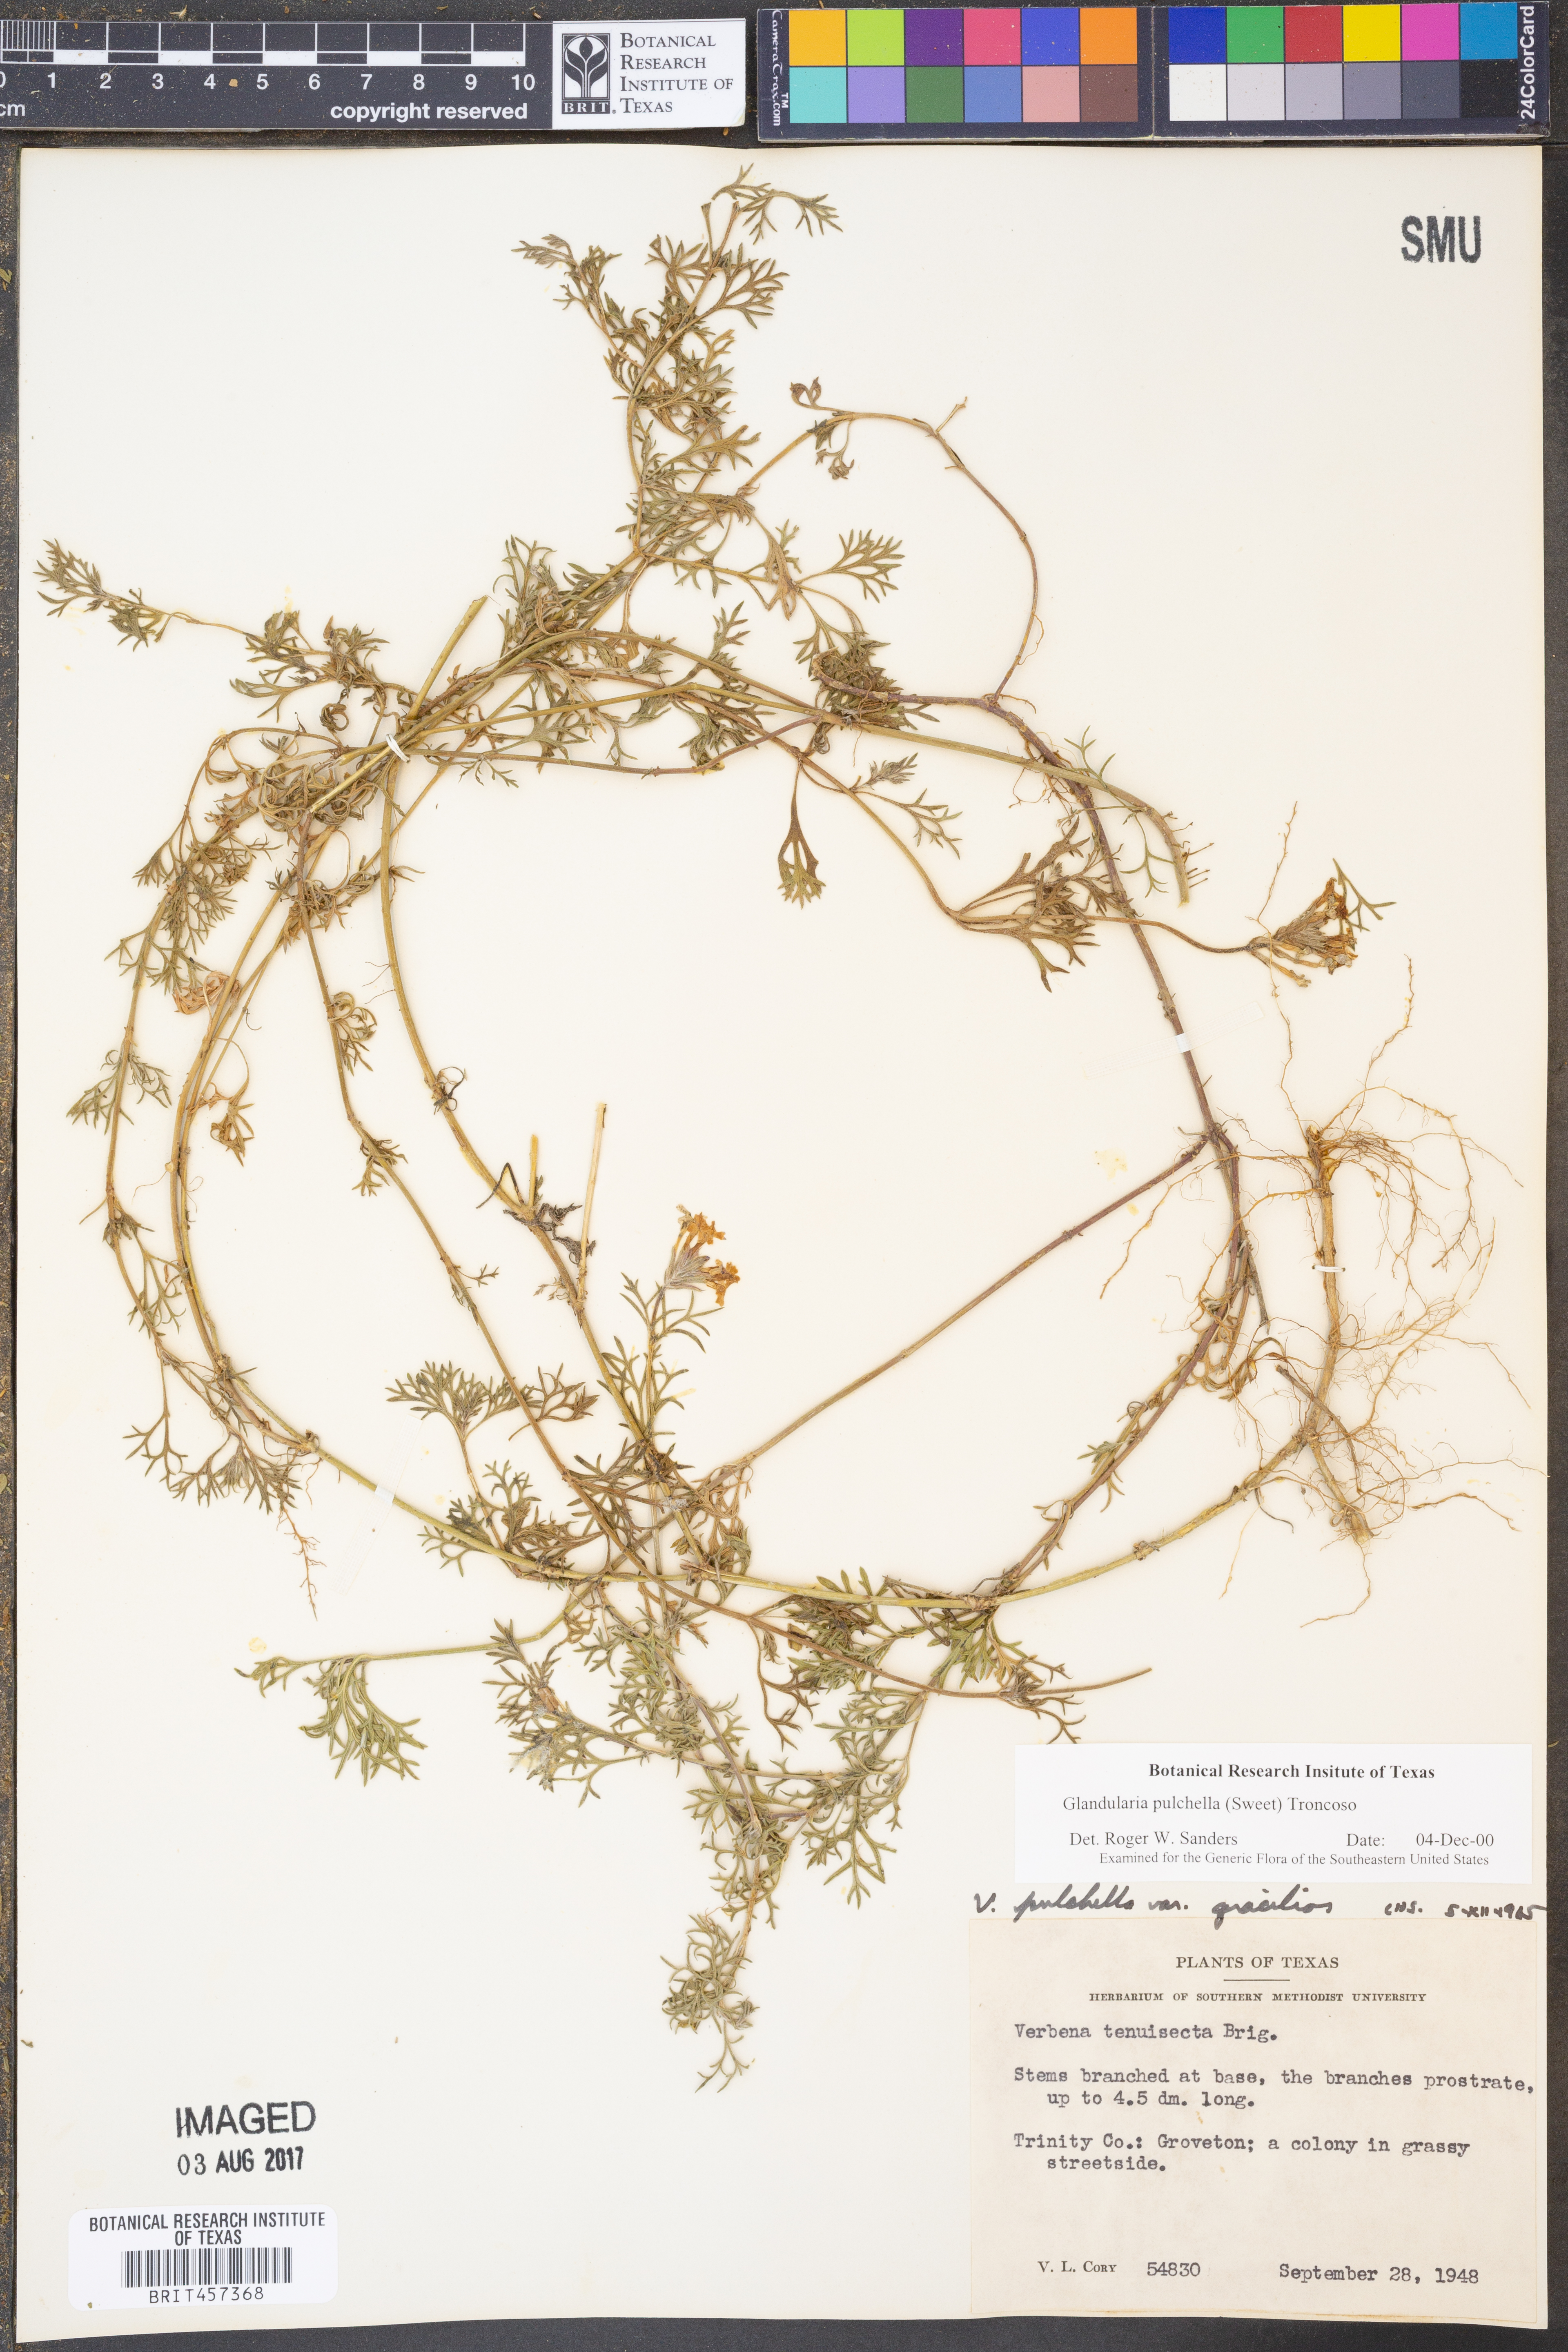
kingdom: Plantae
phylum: Tracheophyta
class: Magnoliopsida
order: Lamiales
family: Verbenaceae
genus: Verbena
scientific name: Verbena tenera
